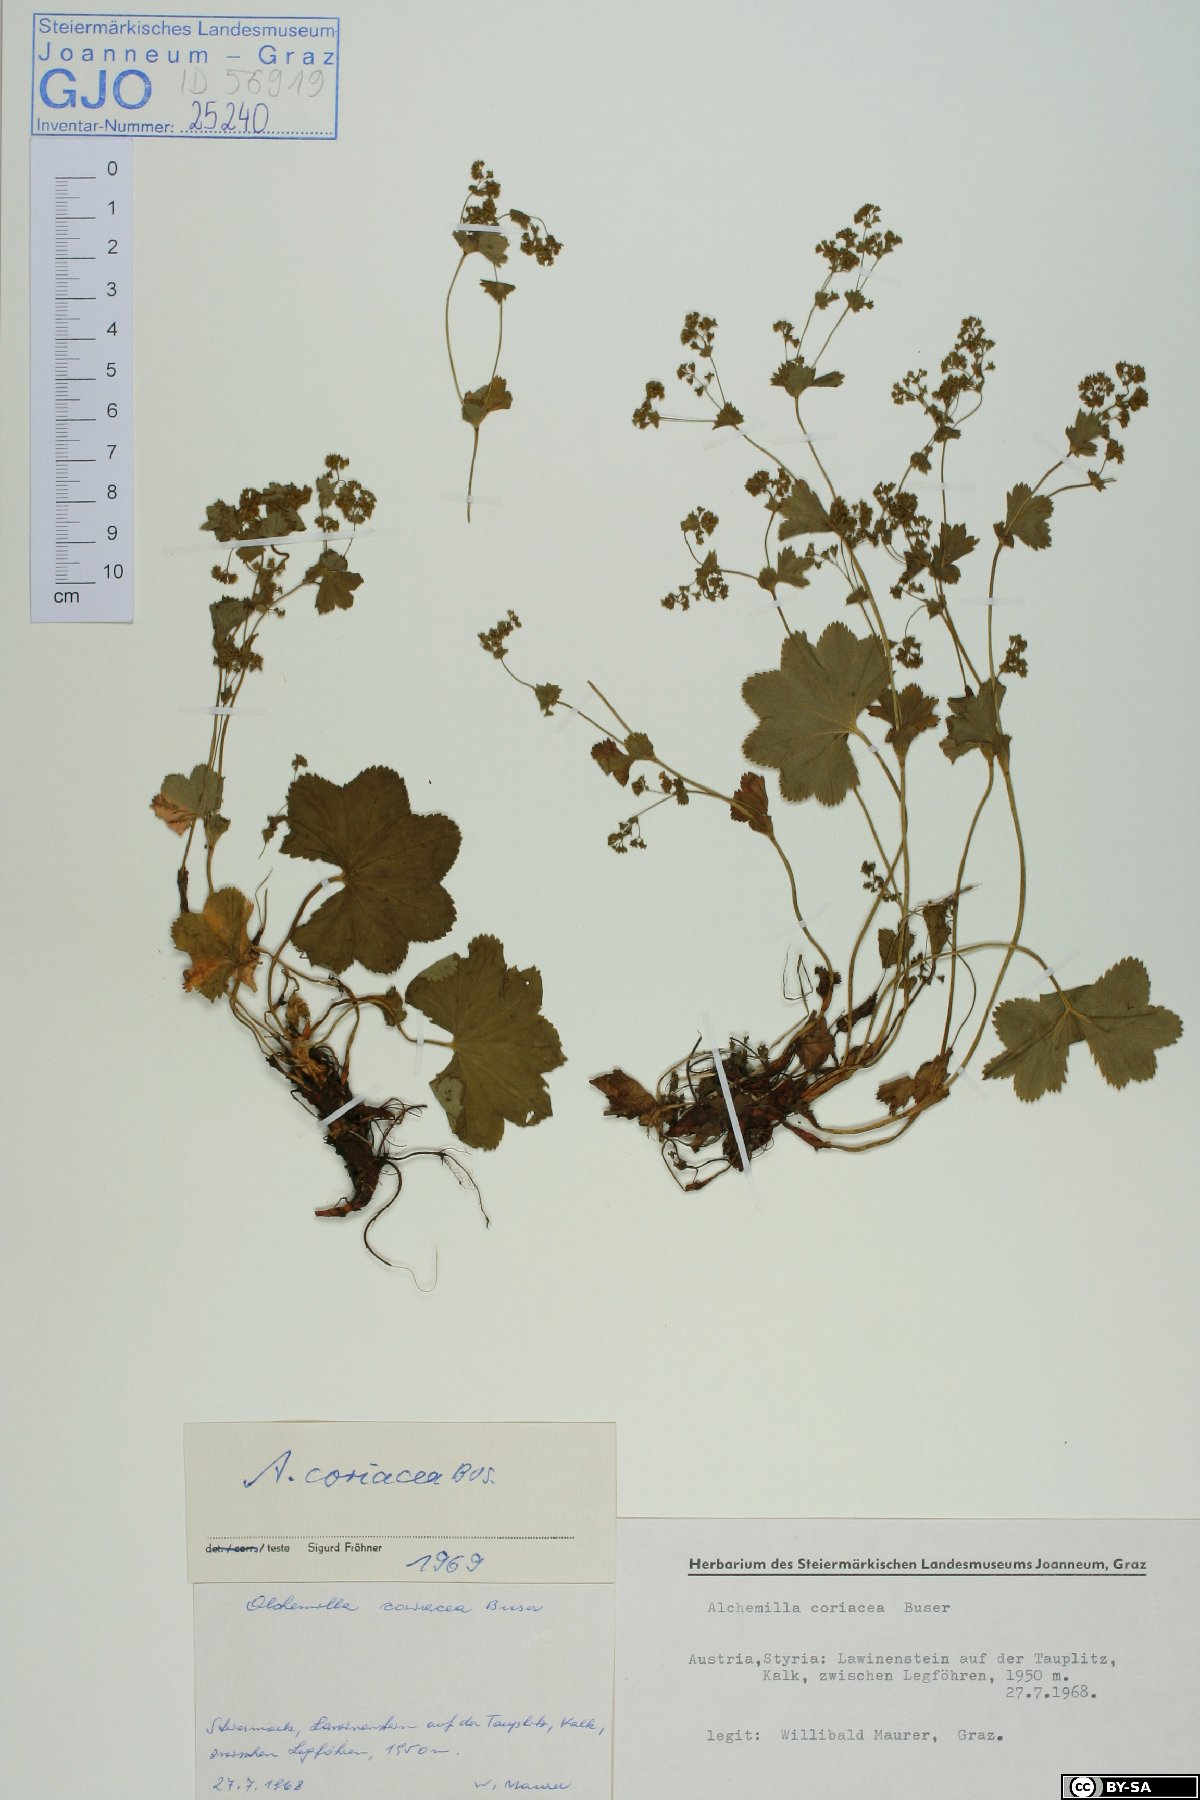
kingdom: Plantae
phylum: Tracheophyta
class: Magnoliopsida
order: Rosales
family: Rosaceae
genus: Alchemilla
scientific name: Alchemilla coriacea
